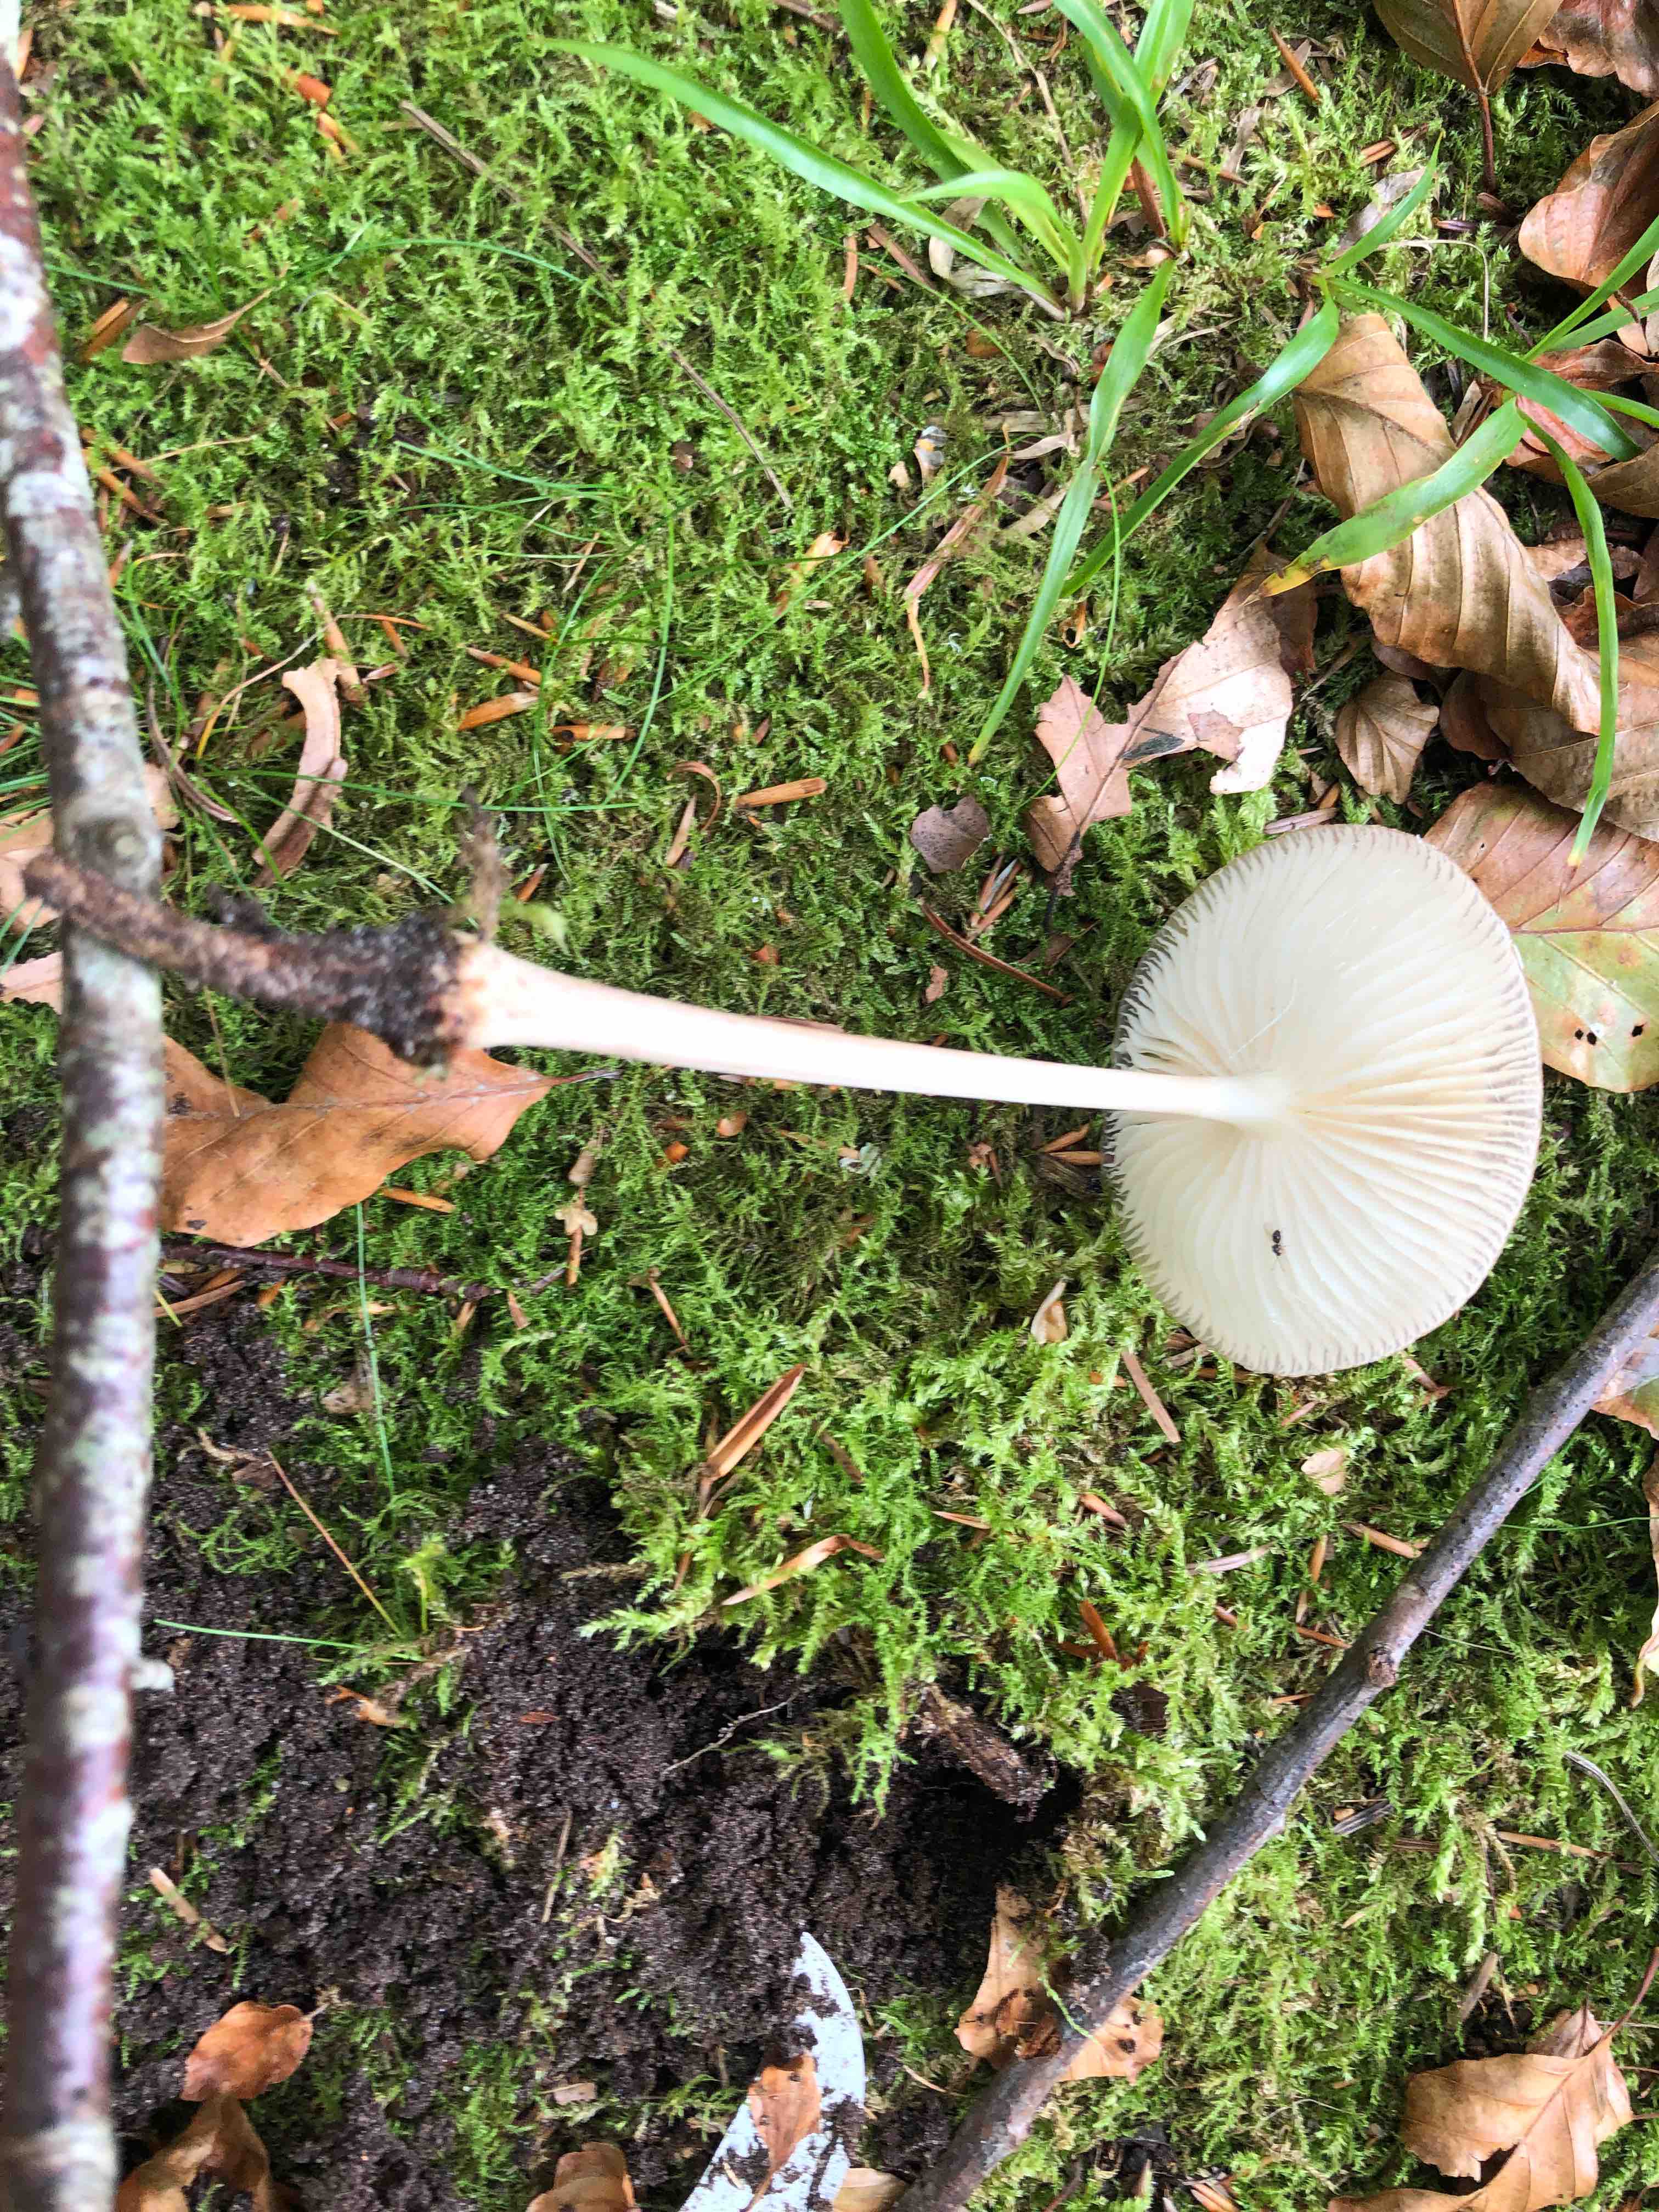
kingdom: Fungi
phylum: Basidiomycota
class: Agaricomycetes
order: Agaricales
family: Physalacriaceae
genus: Hymenopellis
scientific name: Hymenopellis radicata
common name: almindelig pælerodshat
